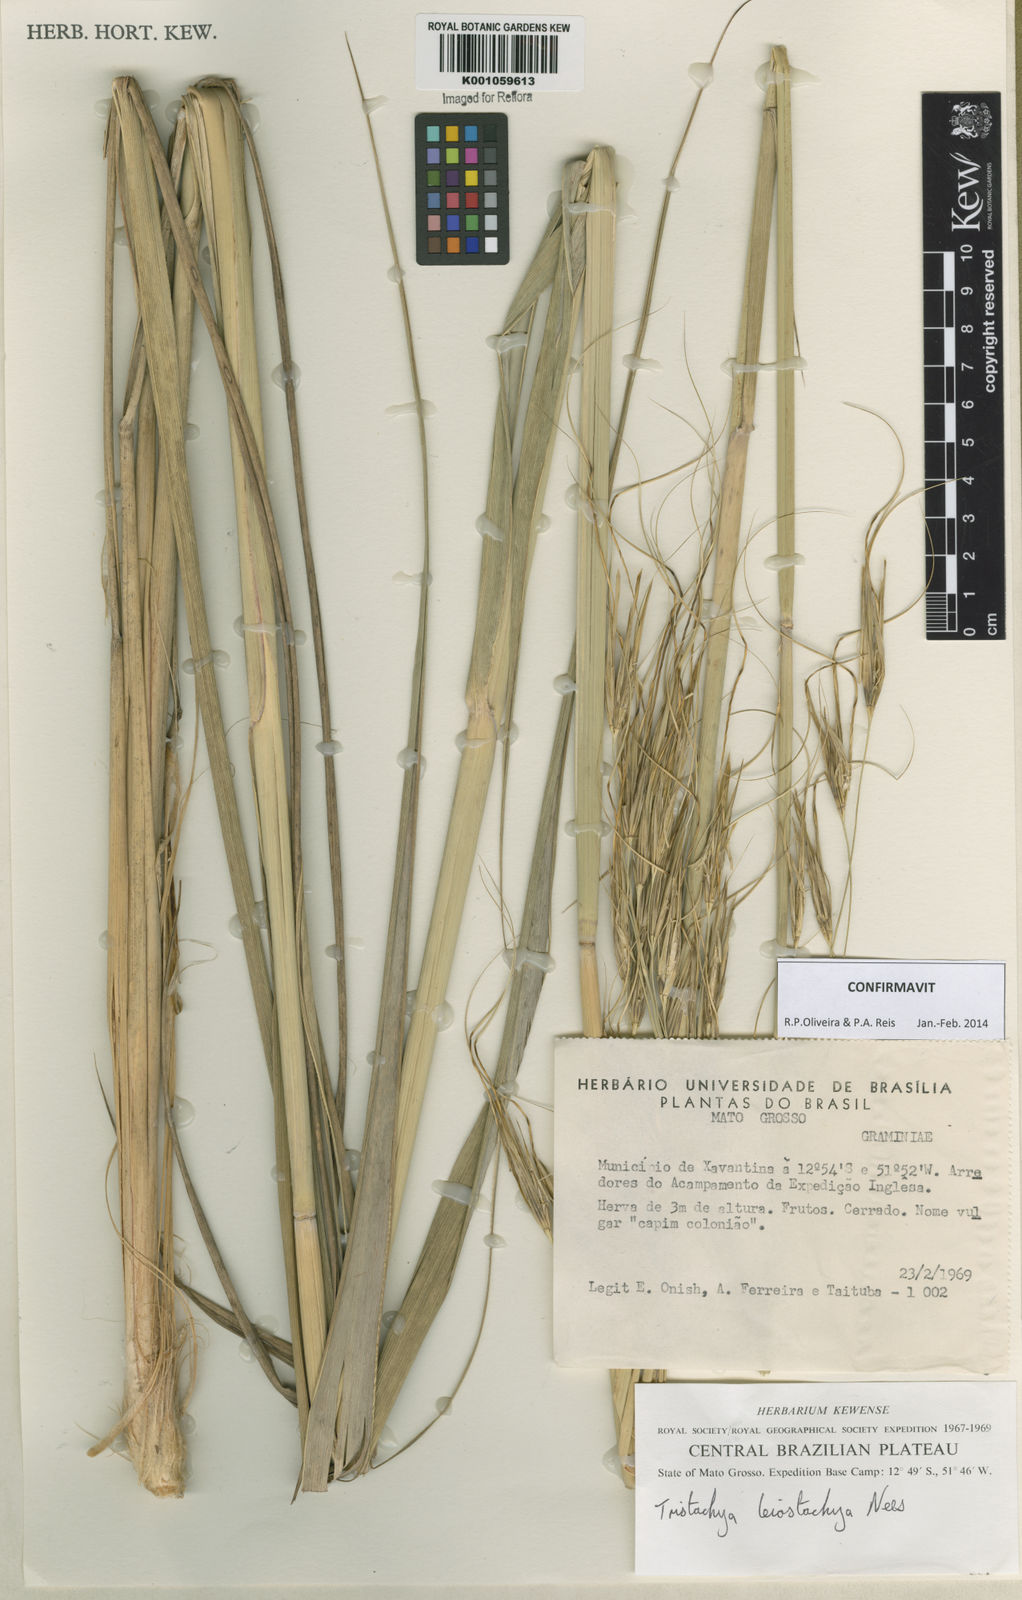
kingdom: Plantae
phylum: Tracheophyta
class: Liliopsida
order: Poales
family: Poaceae
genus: Tristachya
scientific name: Tristachya leiostachya
